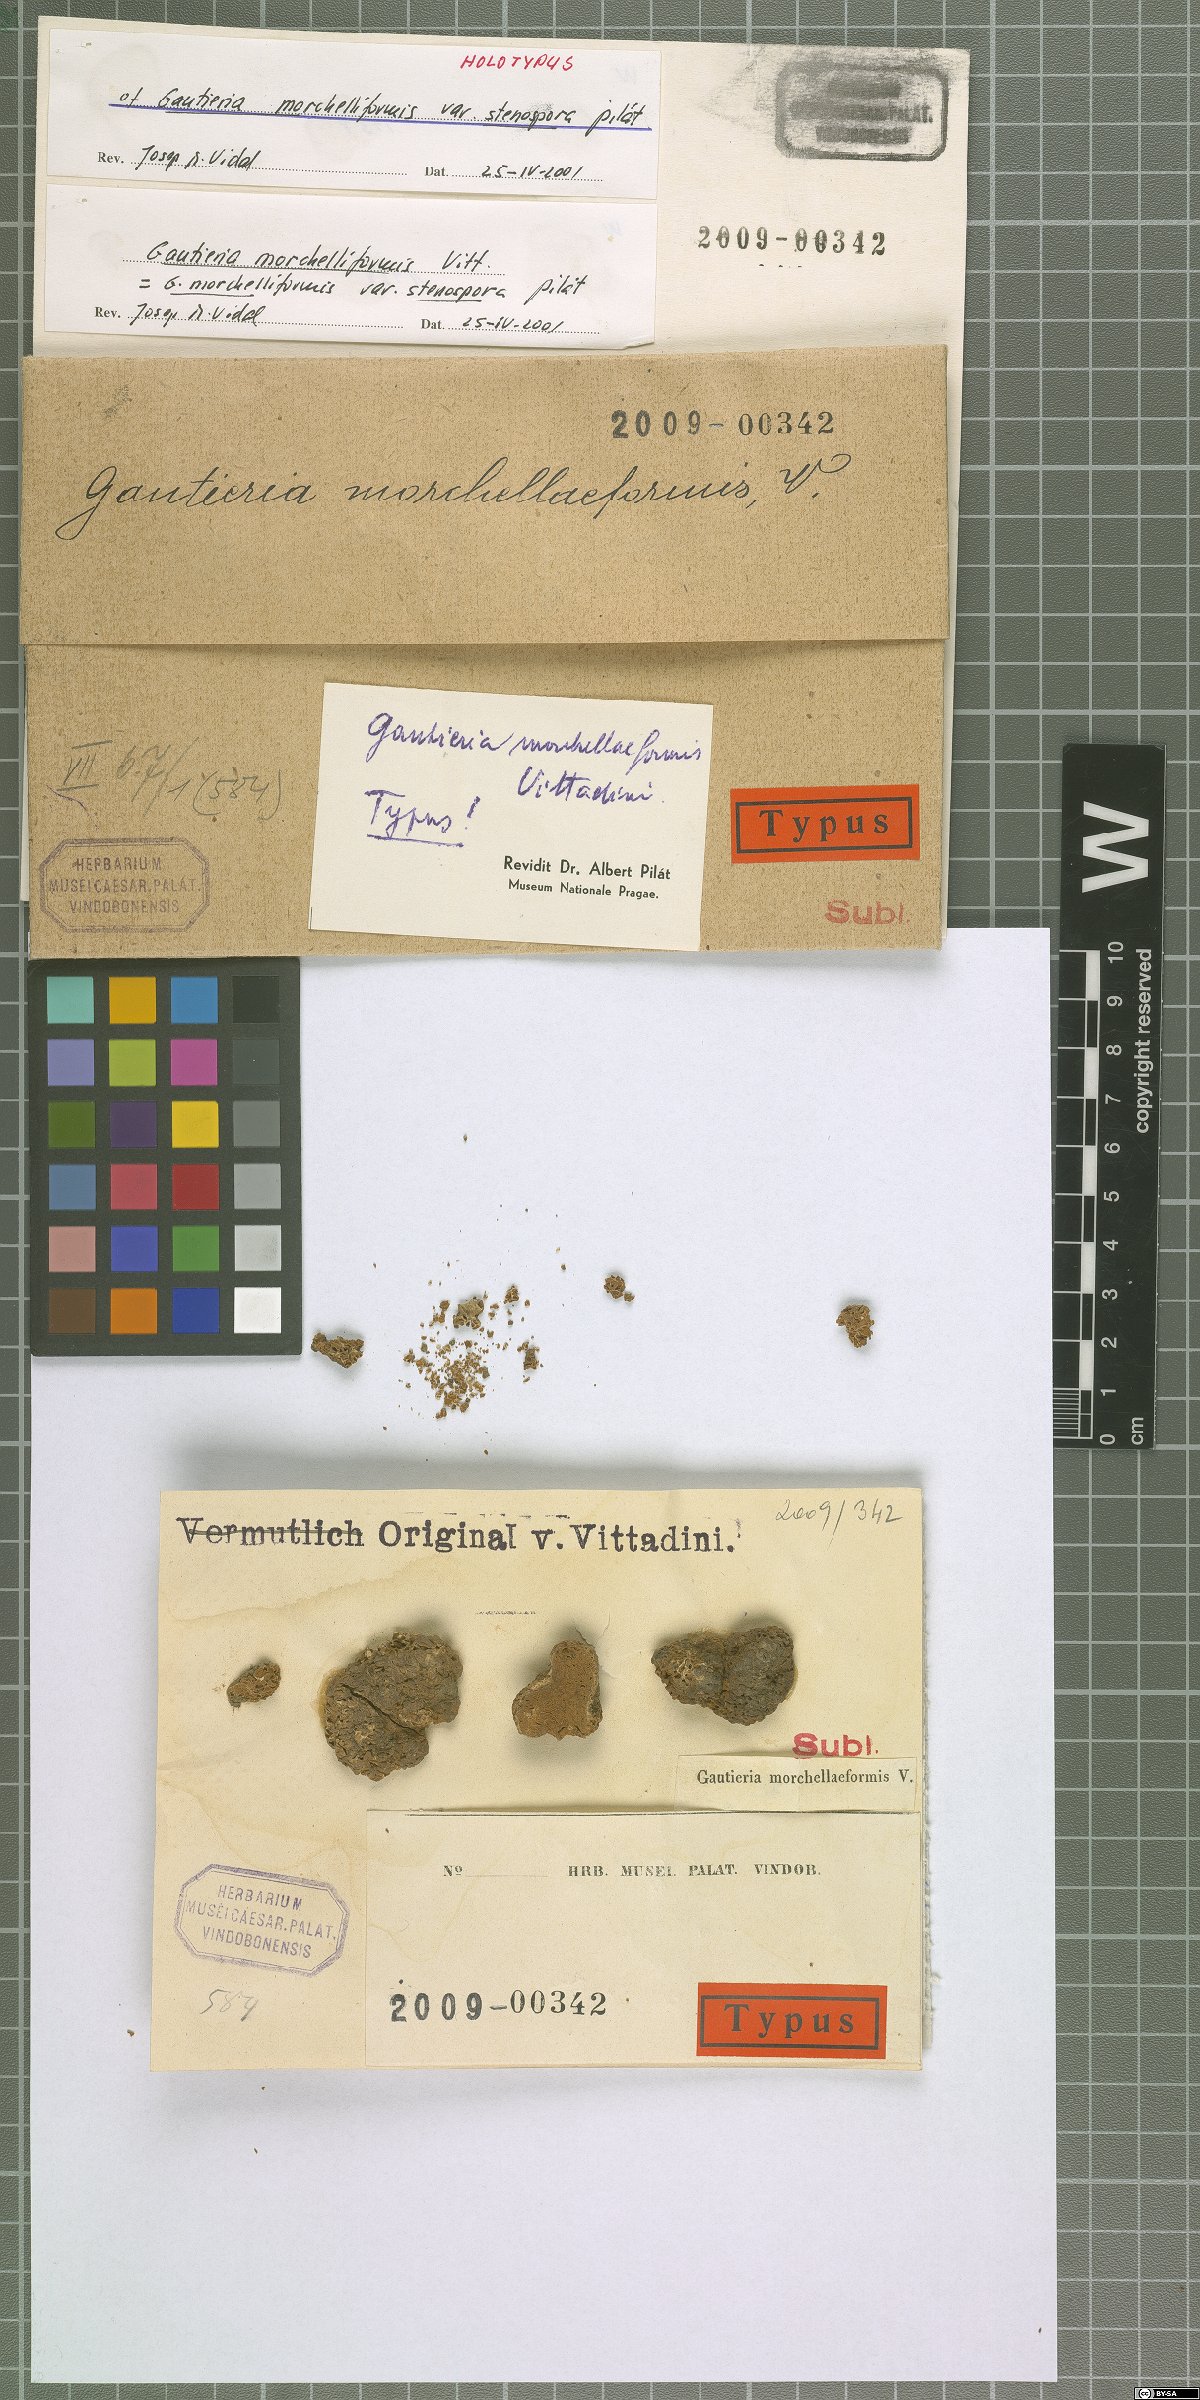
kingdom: Fungi
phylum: Basidiomycota
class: Agaricomycetes
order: Gomphales
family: Gomphaceae
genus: Gautieria
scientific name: Gautieria morchelliformis
